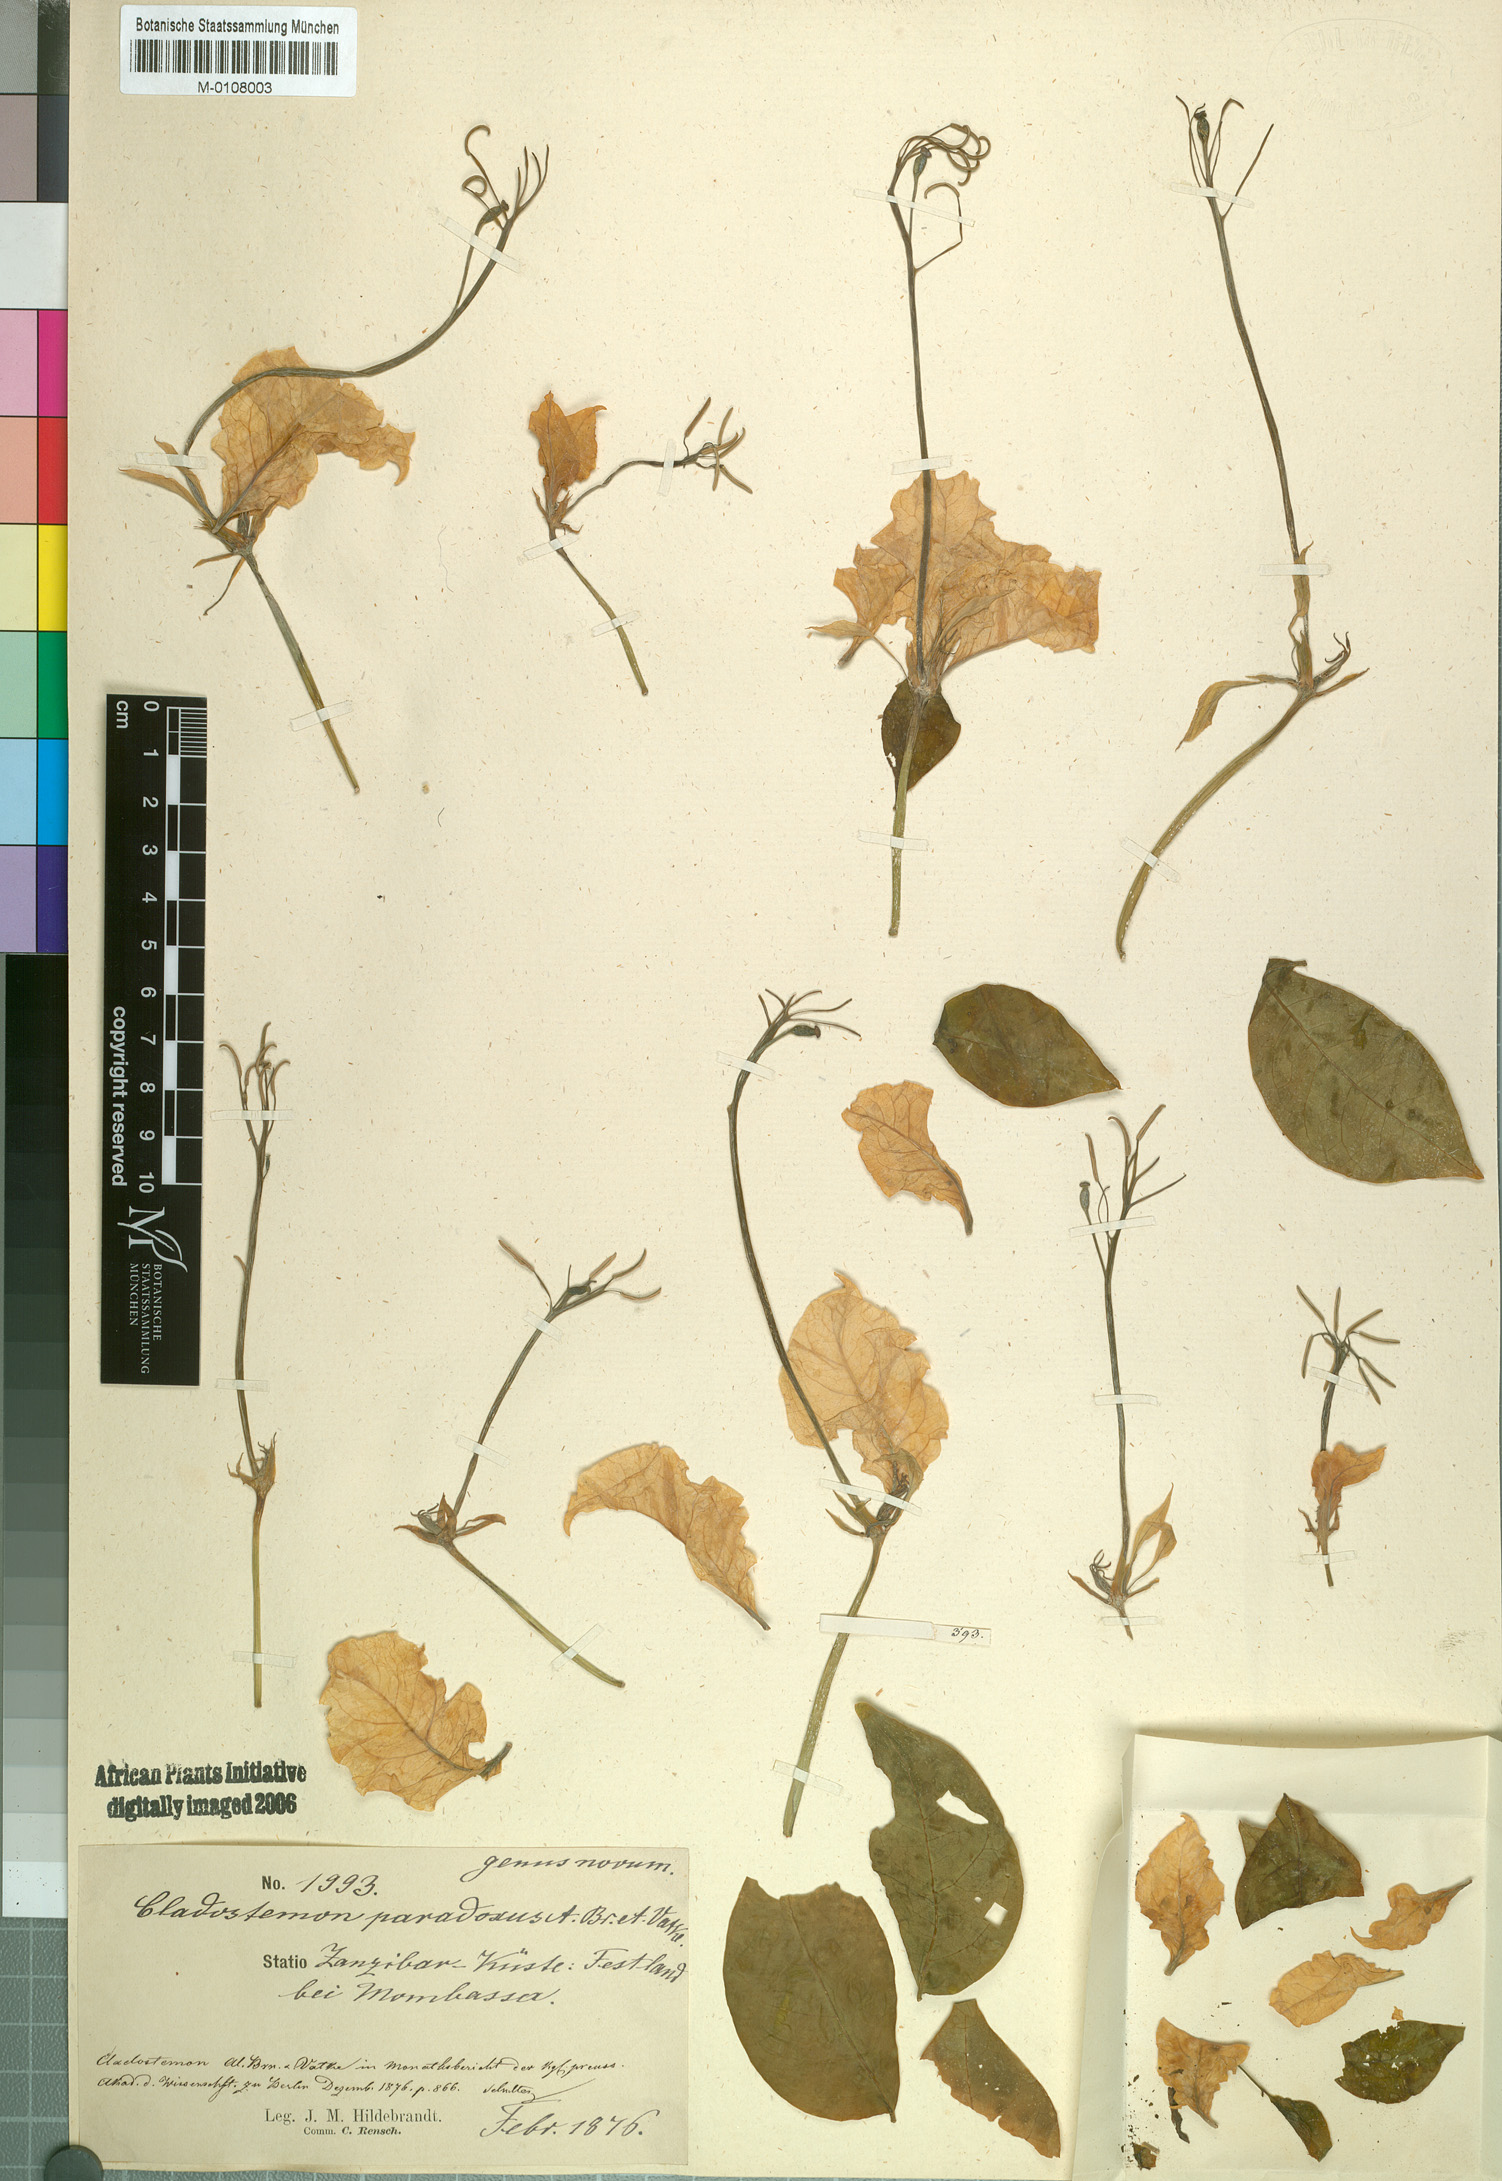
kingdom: Plantae
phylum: Tracheophyta
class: Magnoliopsida
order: Brassicales
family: Capparaceae
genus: Cladostemon
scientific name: Cladostemon kirkii
